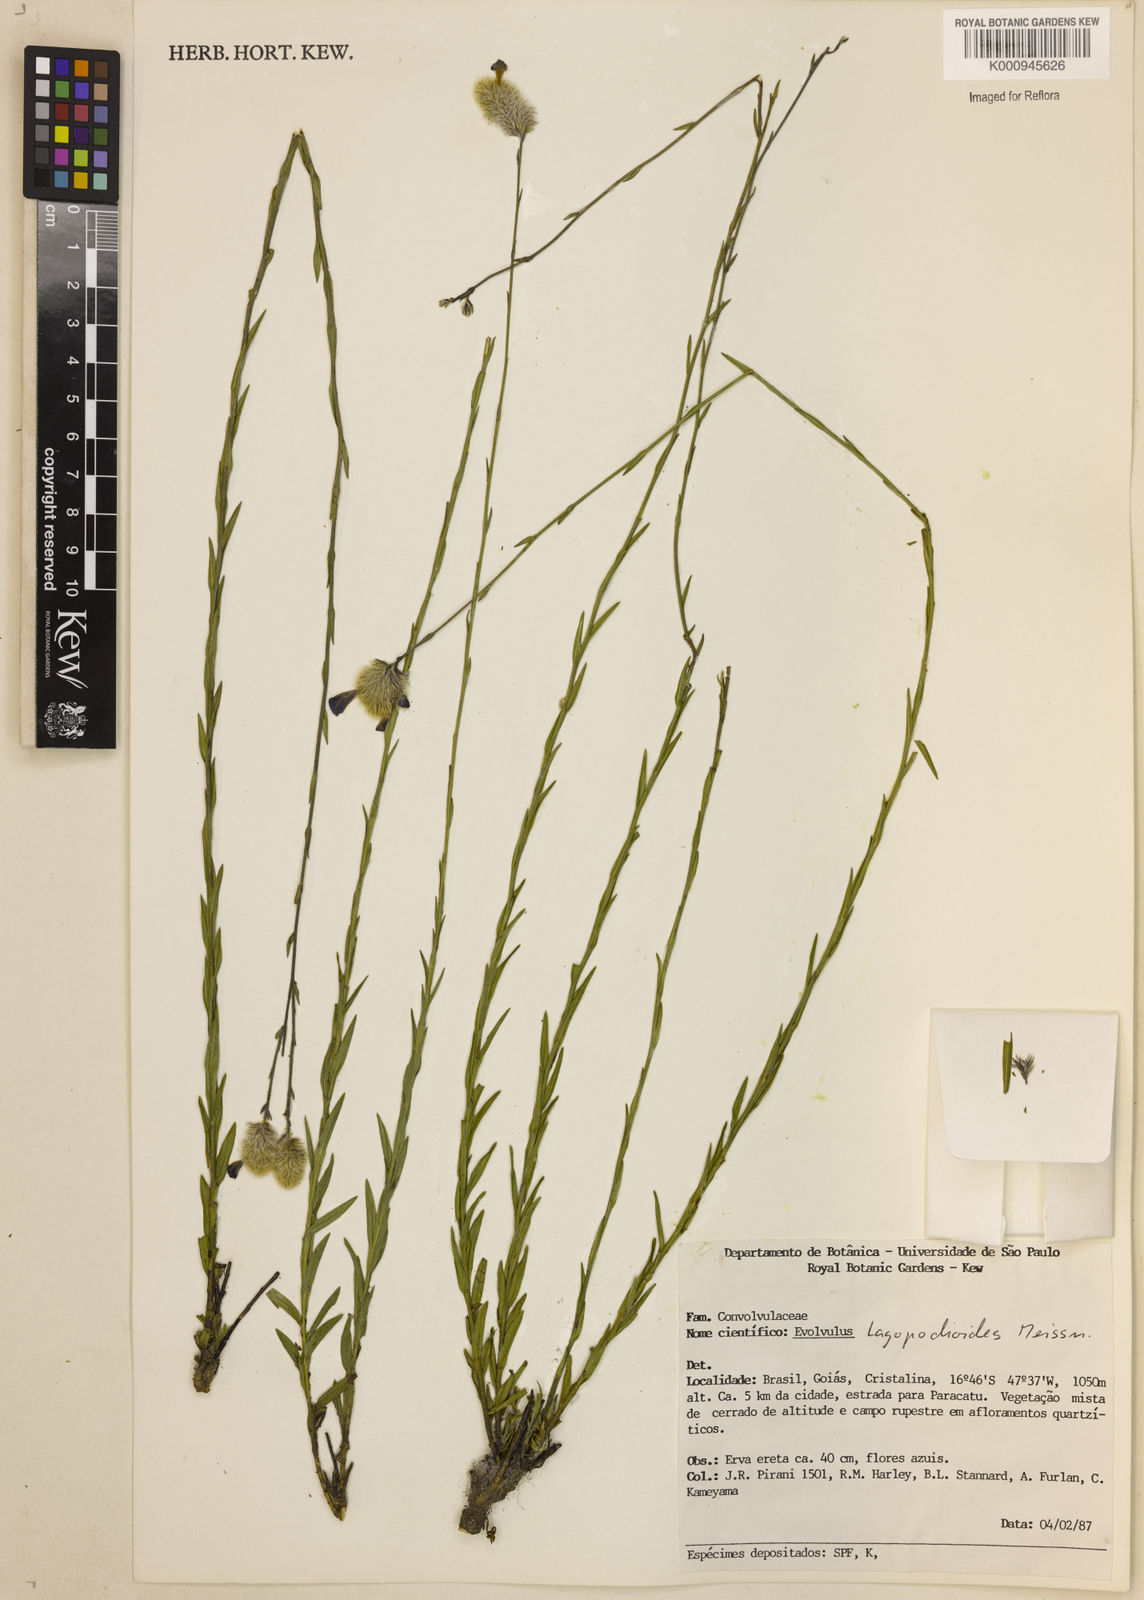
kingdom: Plantae
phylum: Tracheophyta
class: Magnoliopsida
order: Solanales
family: Convolvulaceae
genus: Evolvulus
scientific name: Evolvulus lagopodioides
